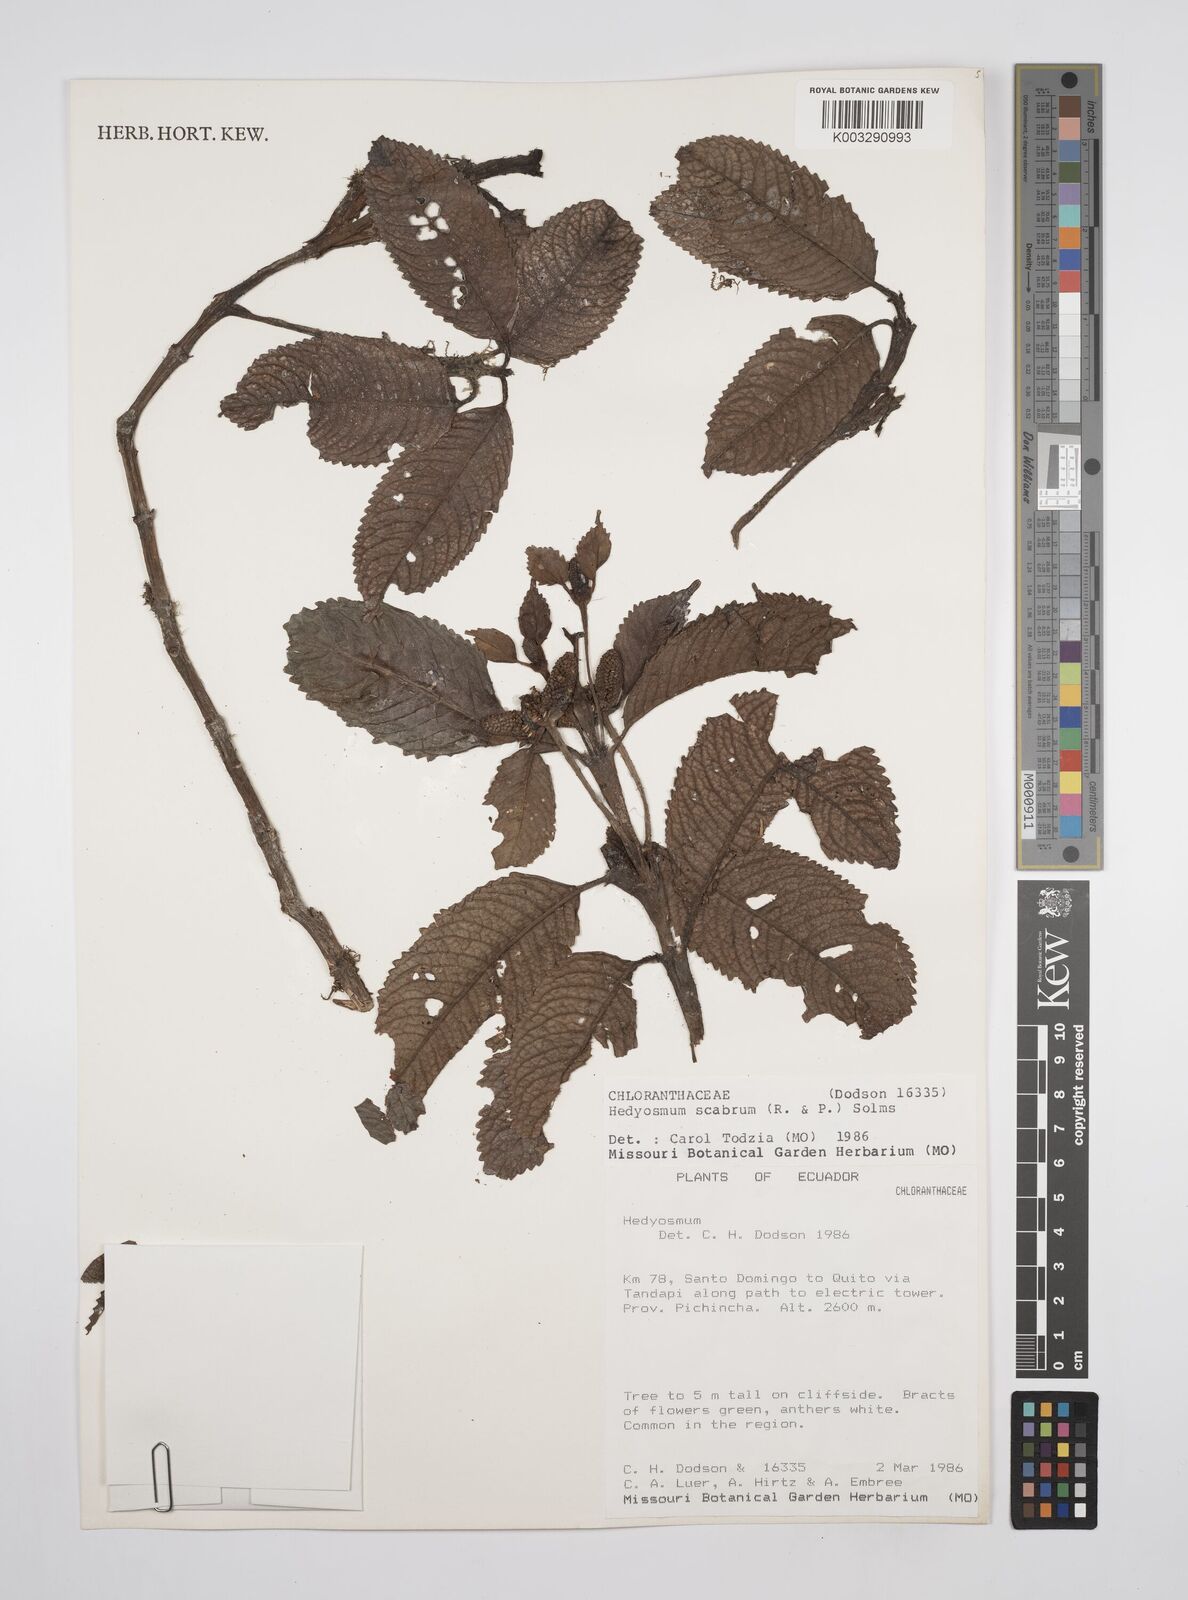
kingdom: Plantae
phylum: Tracheophyta
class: Magnoliopsida
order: Chloranthales
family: Chloranthaceae
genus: Hedyosmum
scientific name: Hedyosmum scabrum
